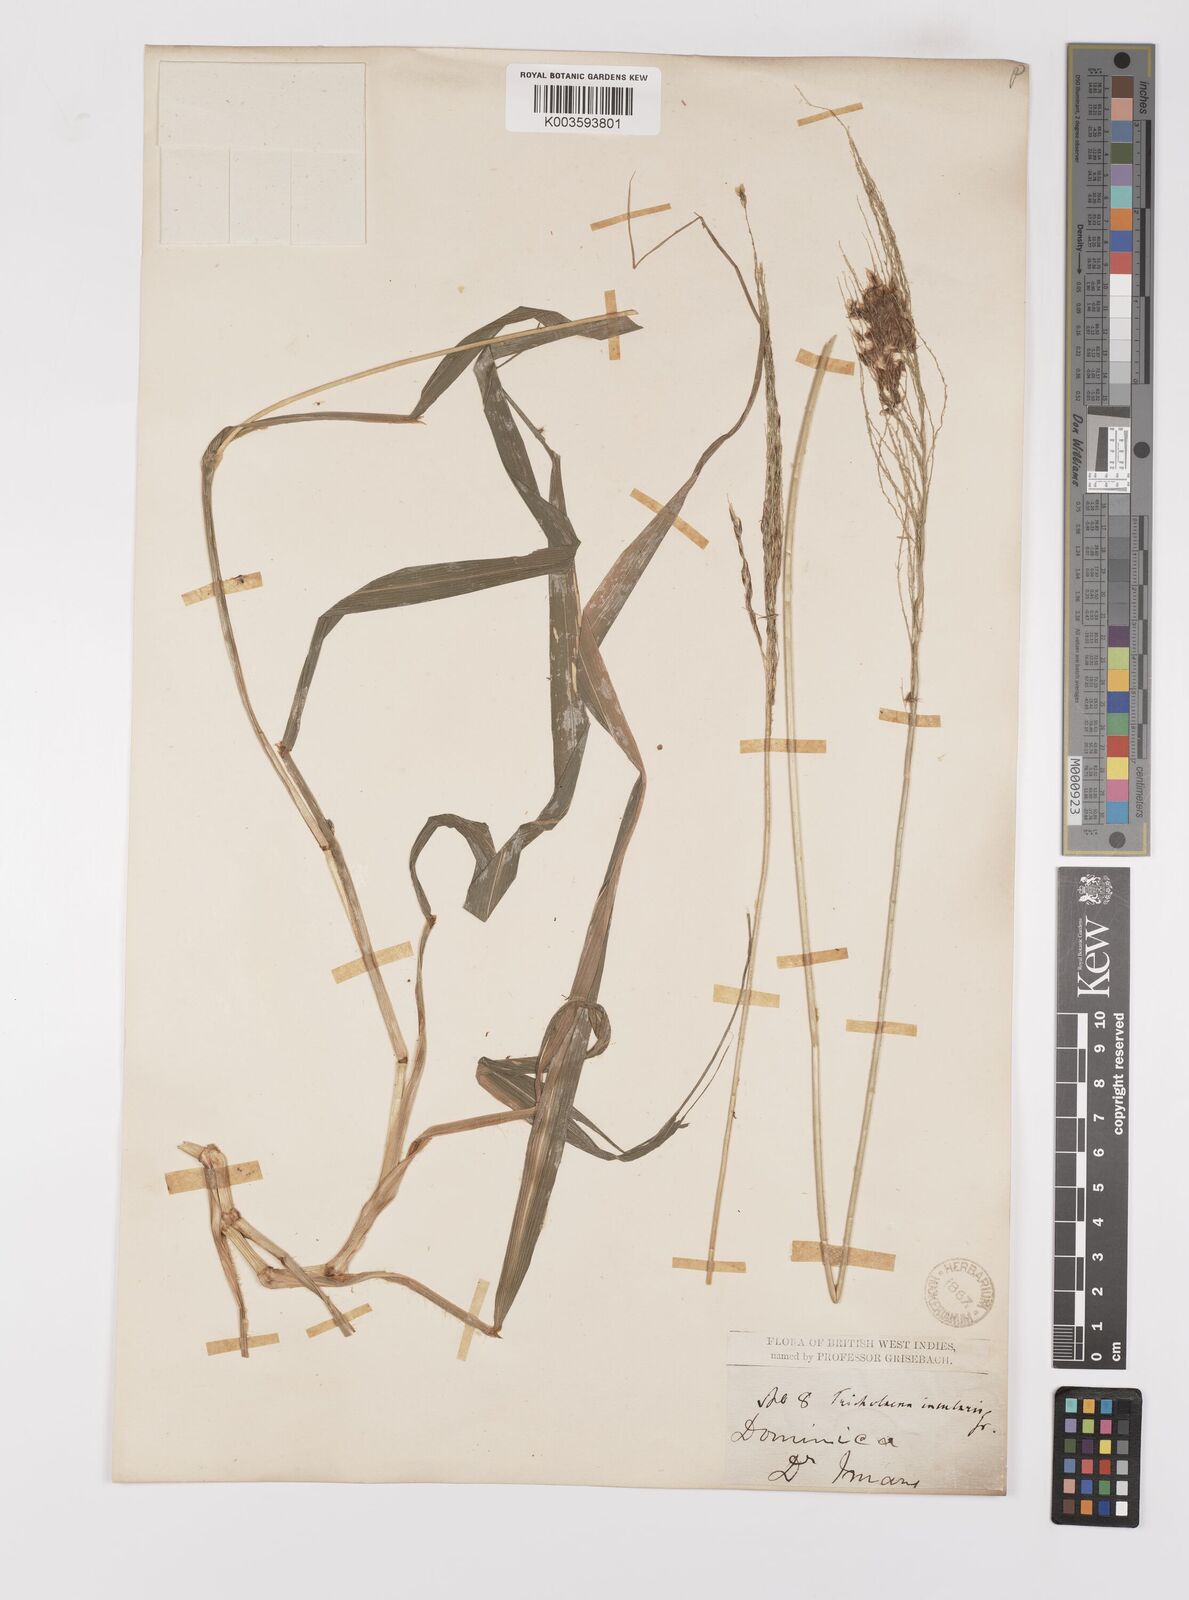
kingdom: Plantae
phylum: Tracheophyta
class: Liliopsida
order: Poales
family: Poaceae
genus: Digitaria
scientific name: Digitaria insularis
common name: Sourgrass
